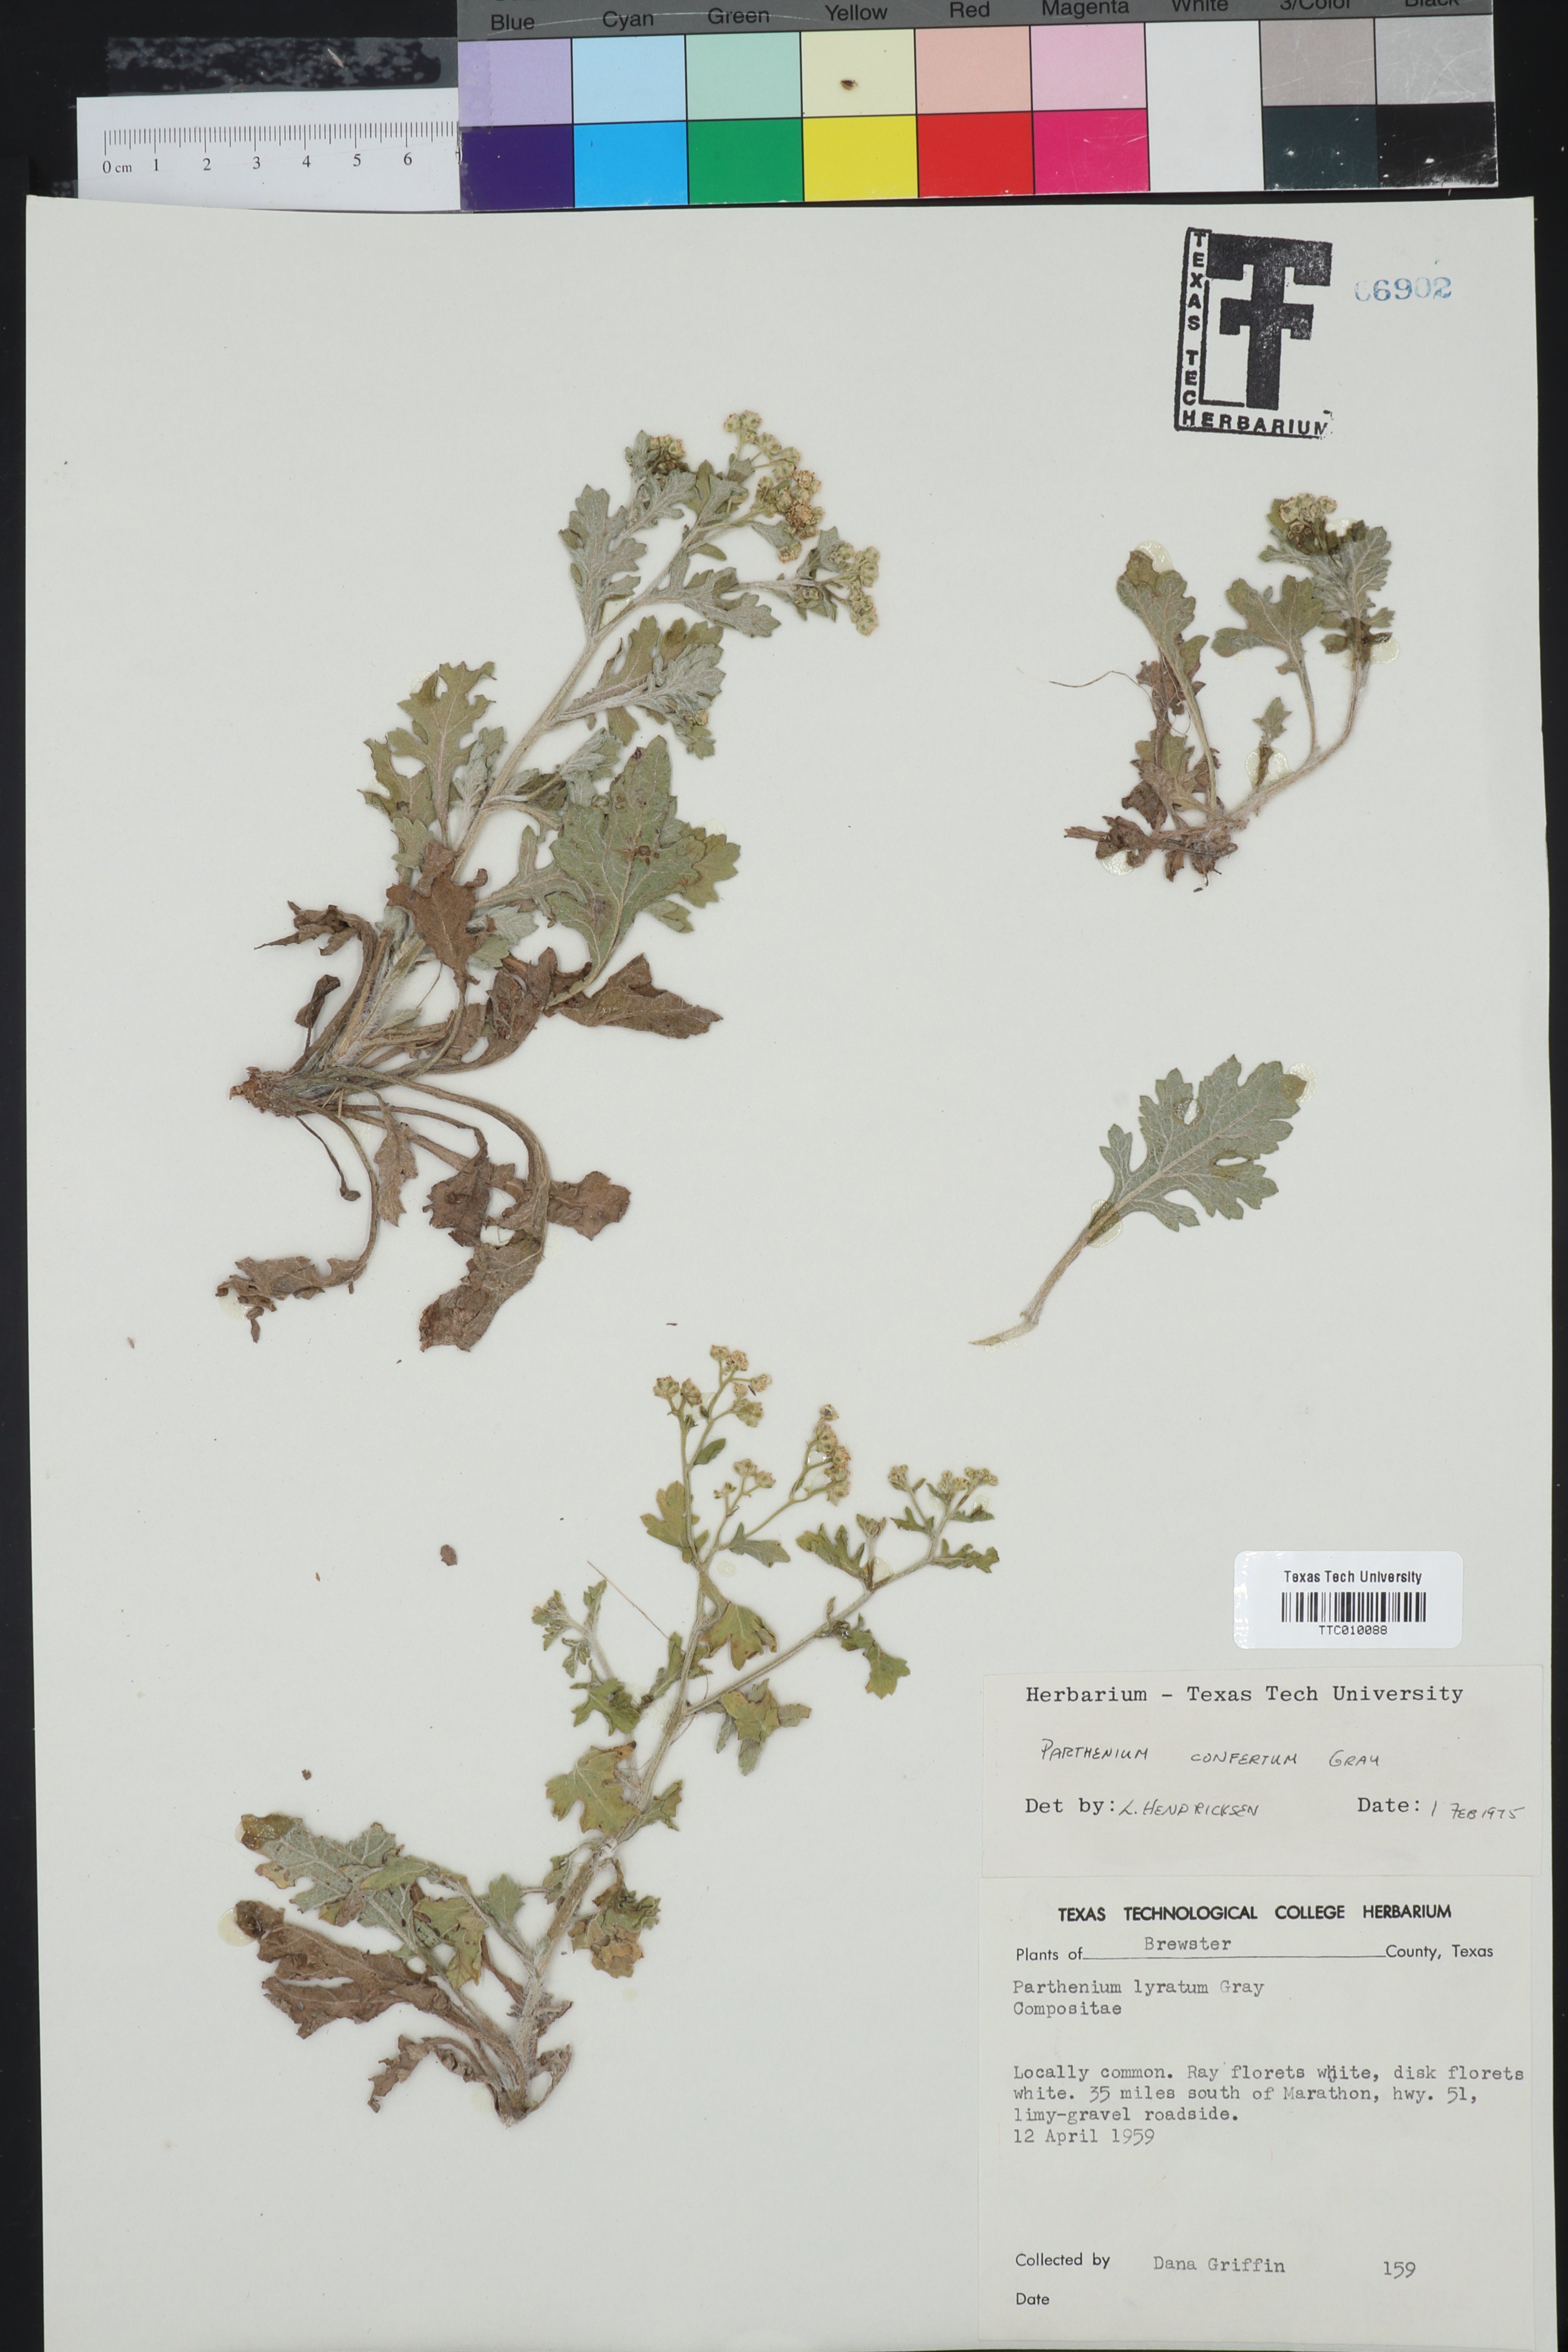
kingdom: Plantae
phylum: Tracheophyta
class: Magnoliopsida
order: Asterales
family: Asteraceae
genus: Parthenium
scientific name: Parthenium confertum
